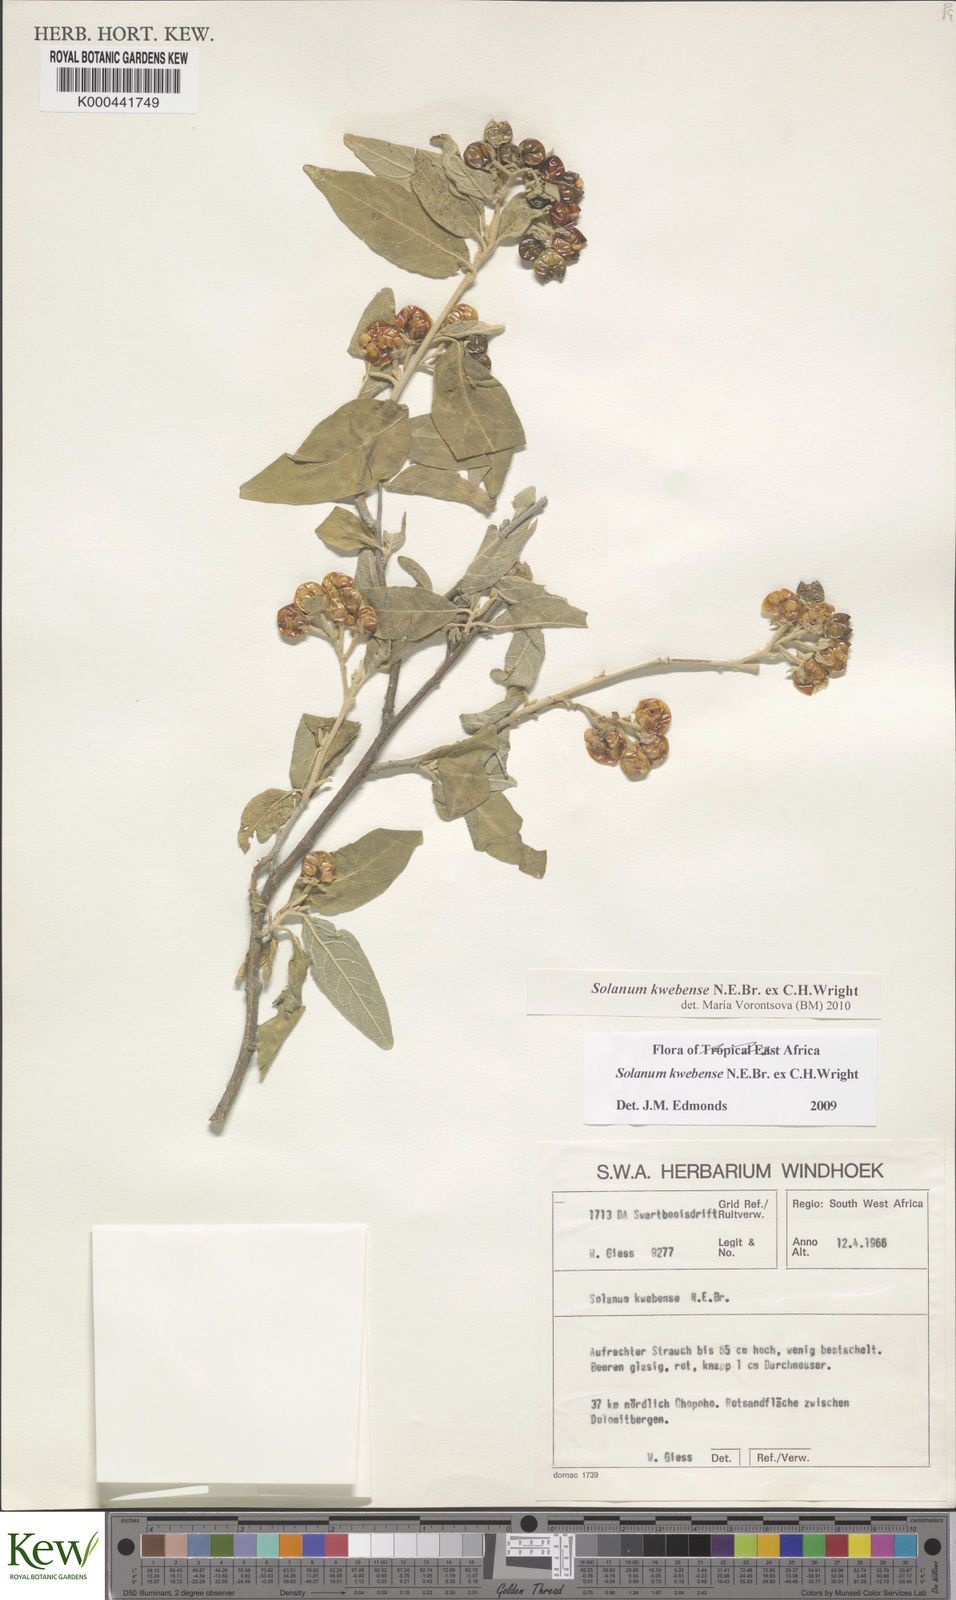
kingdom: Plantae
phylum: Tracheophyta
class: Magnoliopsida
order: Solanales
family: Solanaceae
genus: Solanum
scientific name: Solanum tettense
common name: Mozambique bitter apple
